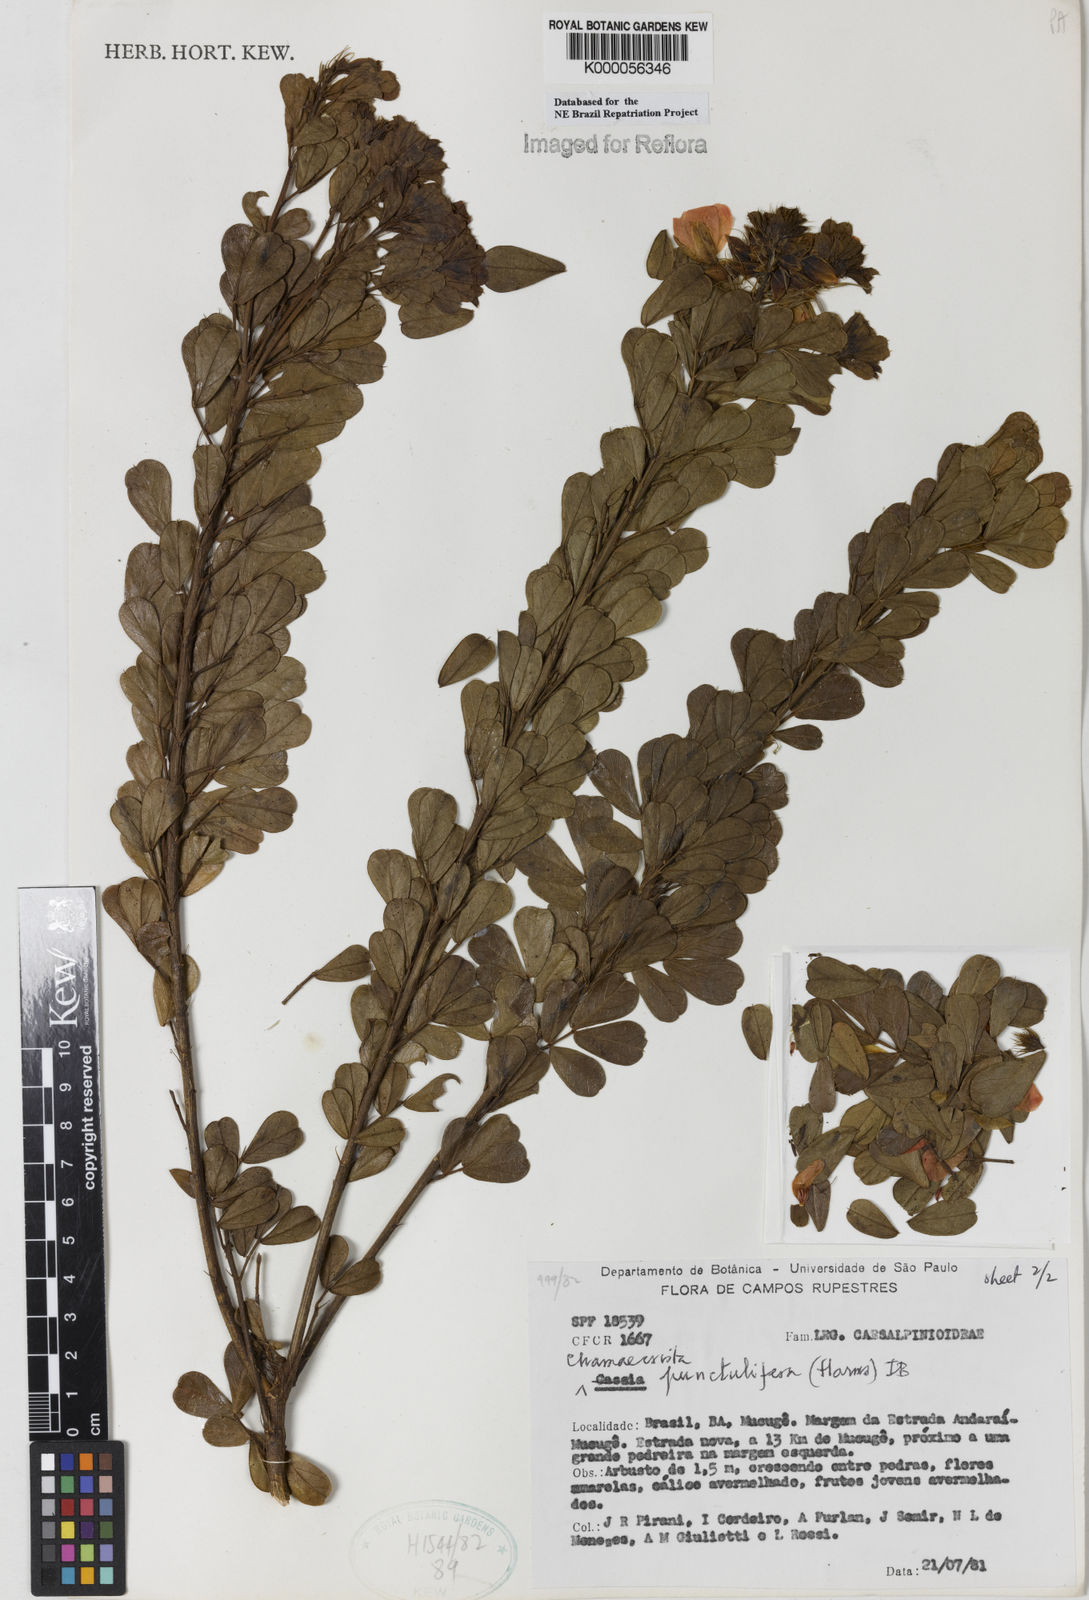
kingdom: Plantae
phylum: Tracheophyta
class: Magnoliopsida
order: Fabales
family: Fabaceae
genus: Chamaecrista
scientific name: Chamaecrista punctulifera
